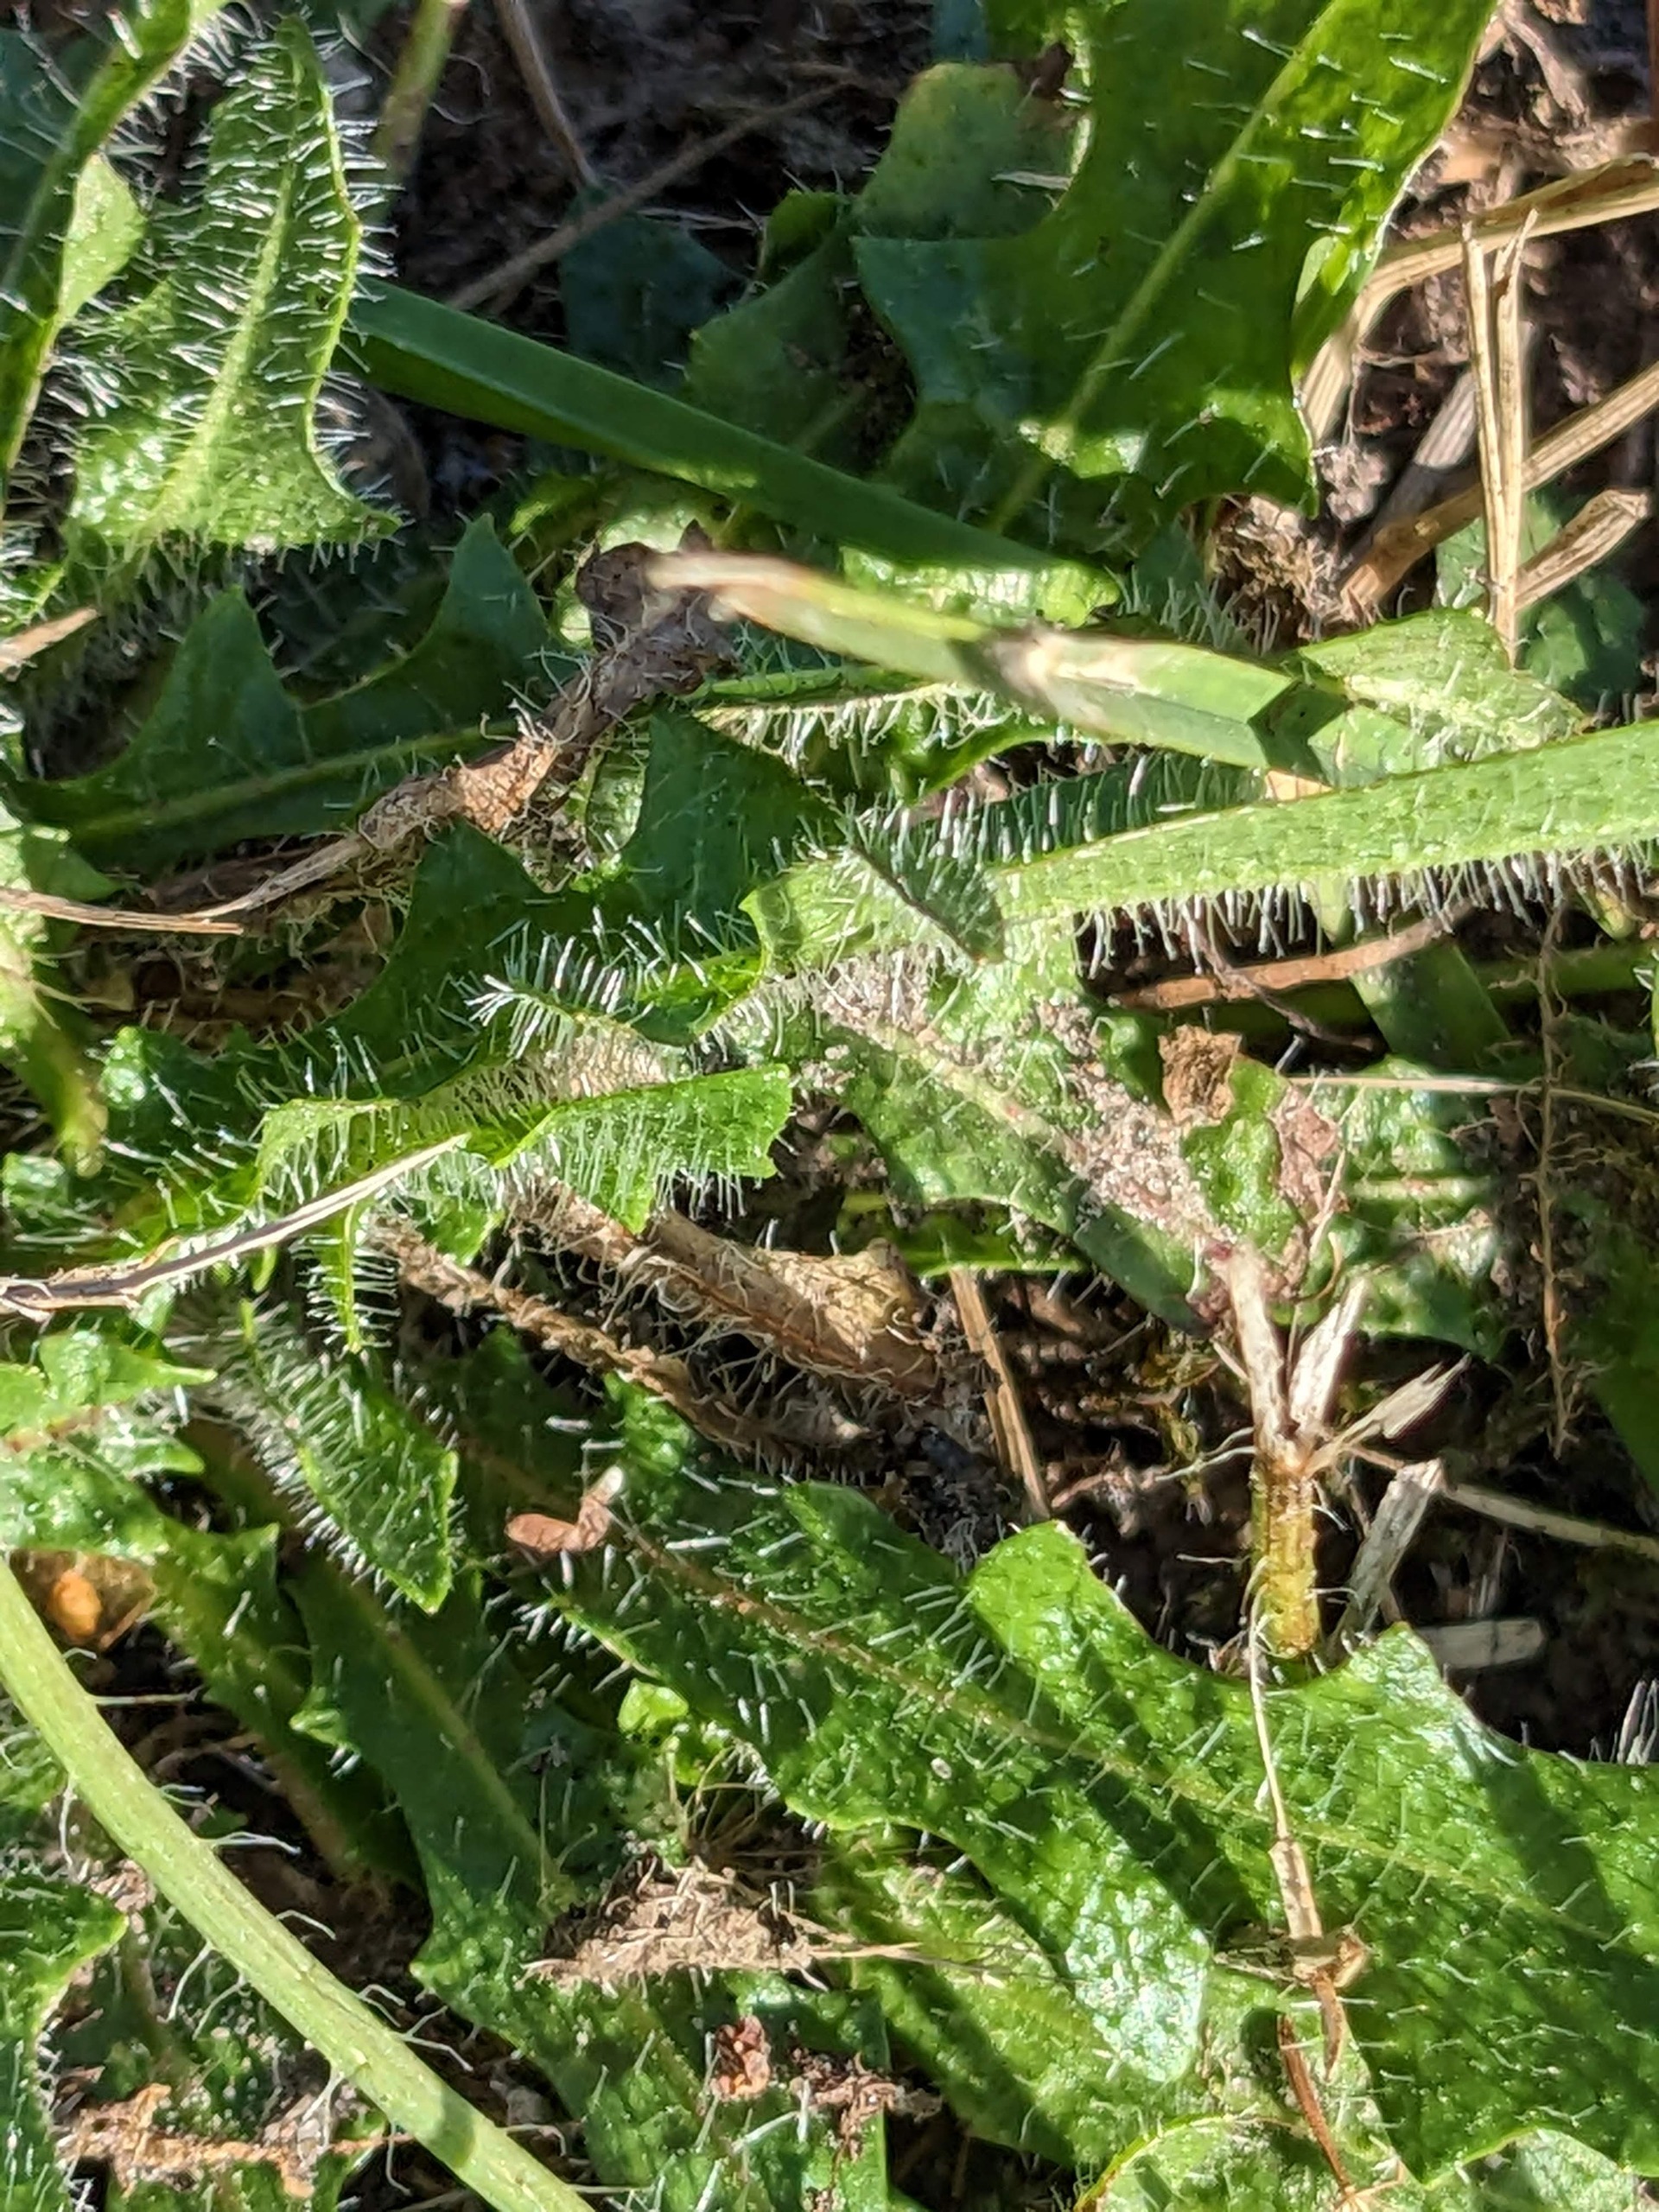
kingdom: Plantae
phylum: Tracheophyta
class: Magnoliopsida
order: Asterales
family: Asteraceae
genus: Thrincia
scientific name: Thrincia saxatilis
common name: Hundesalat
